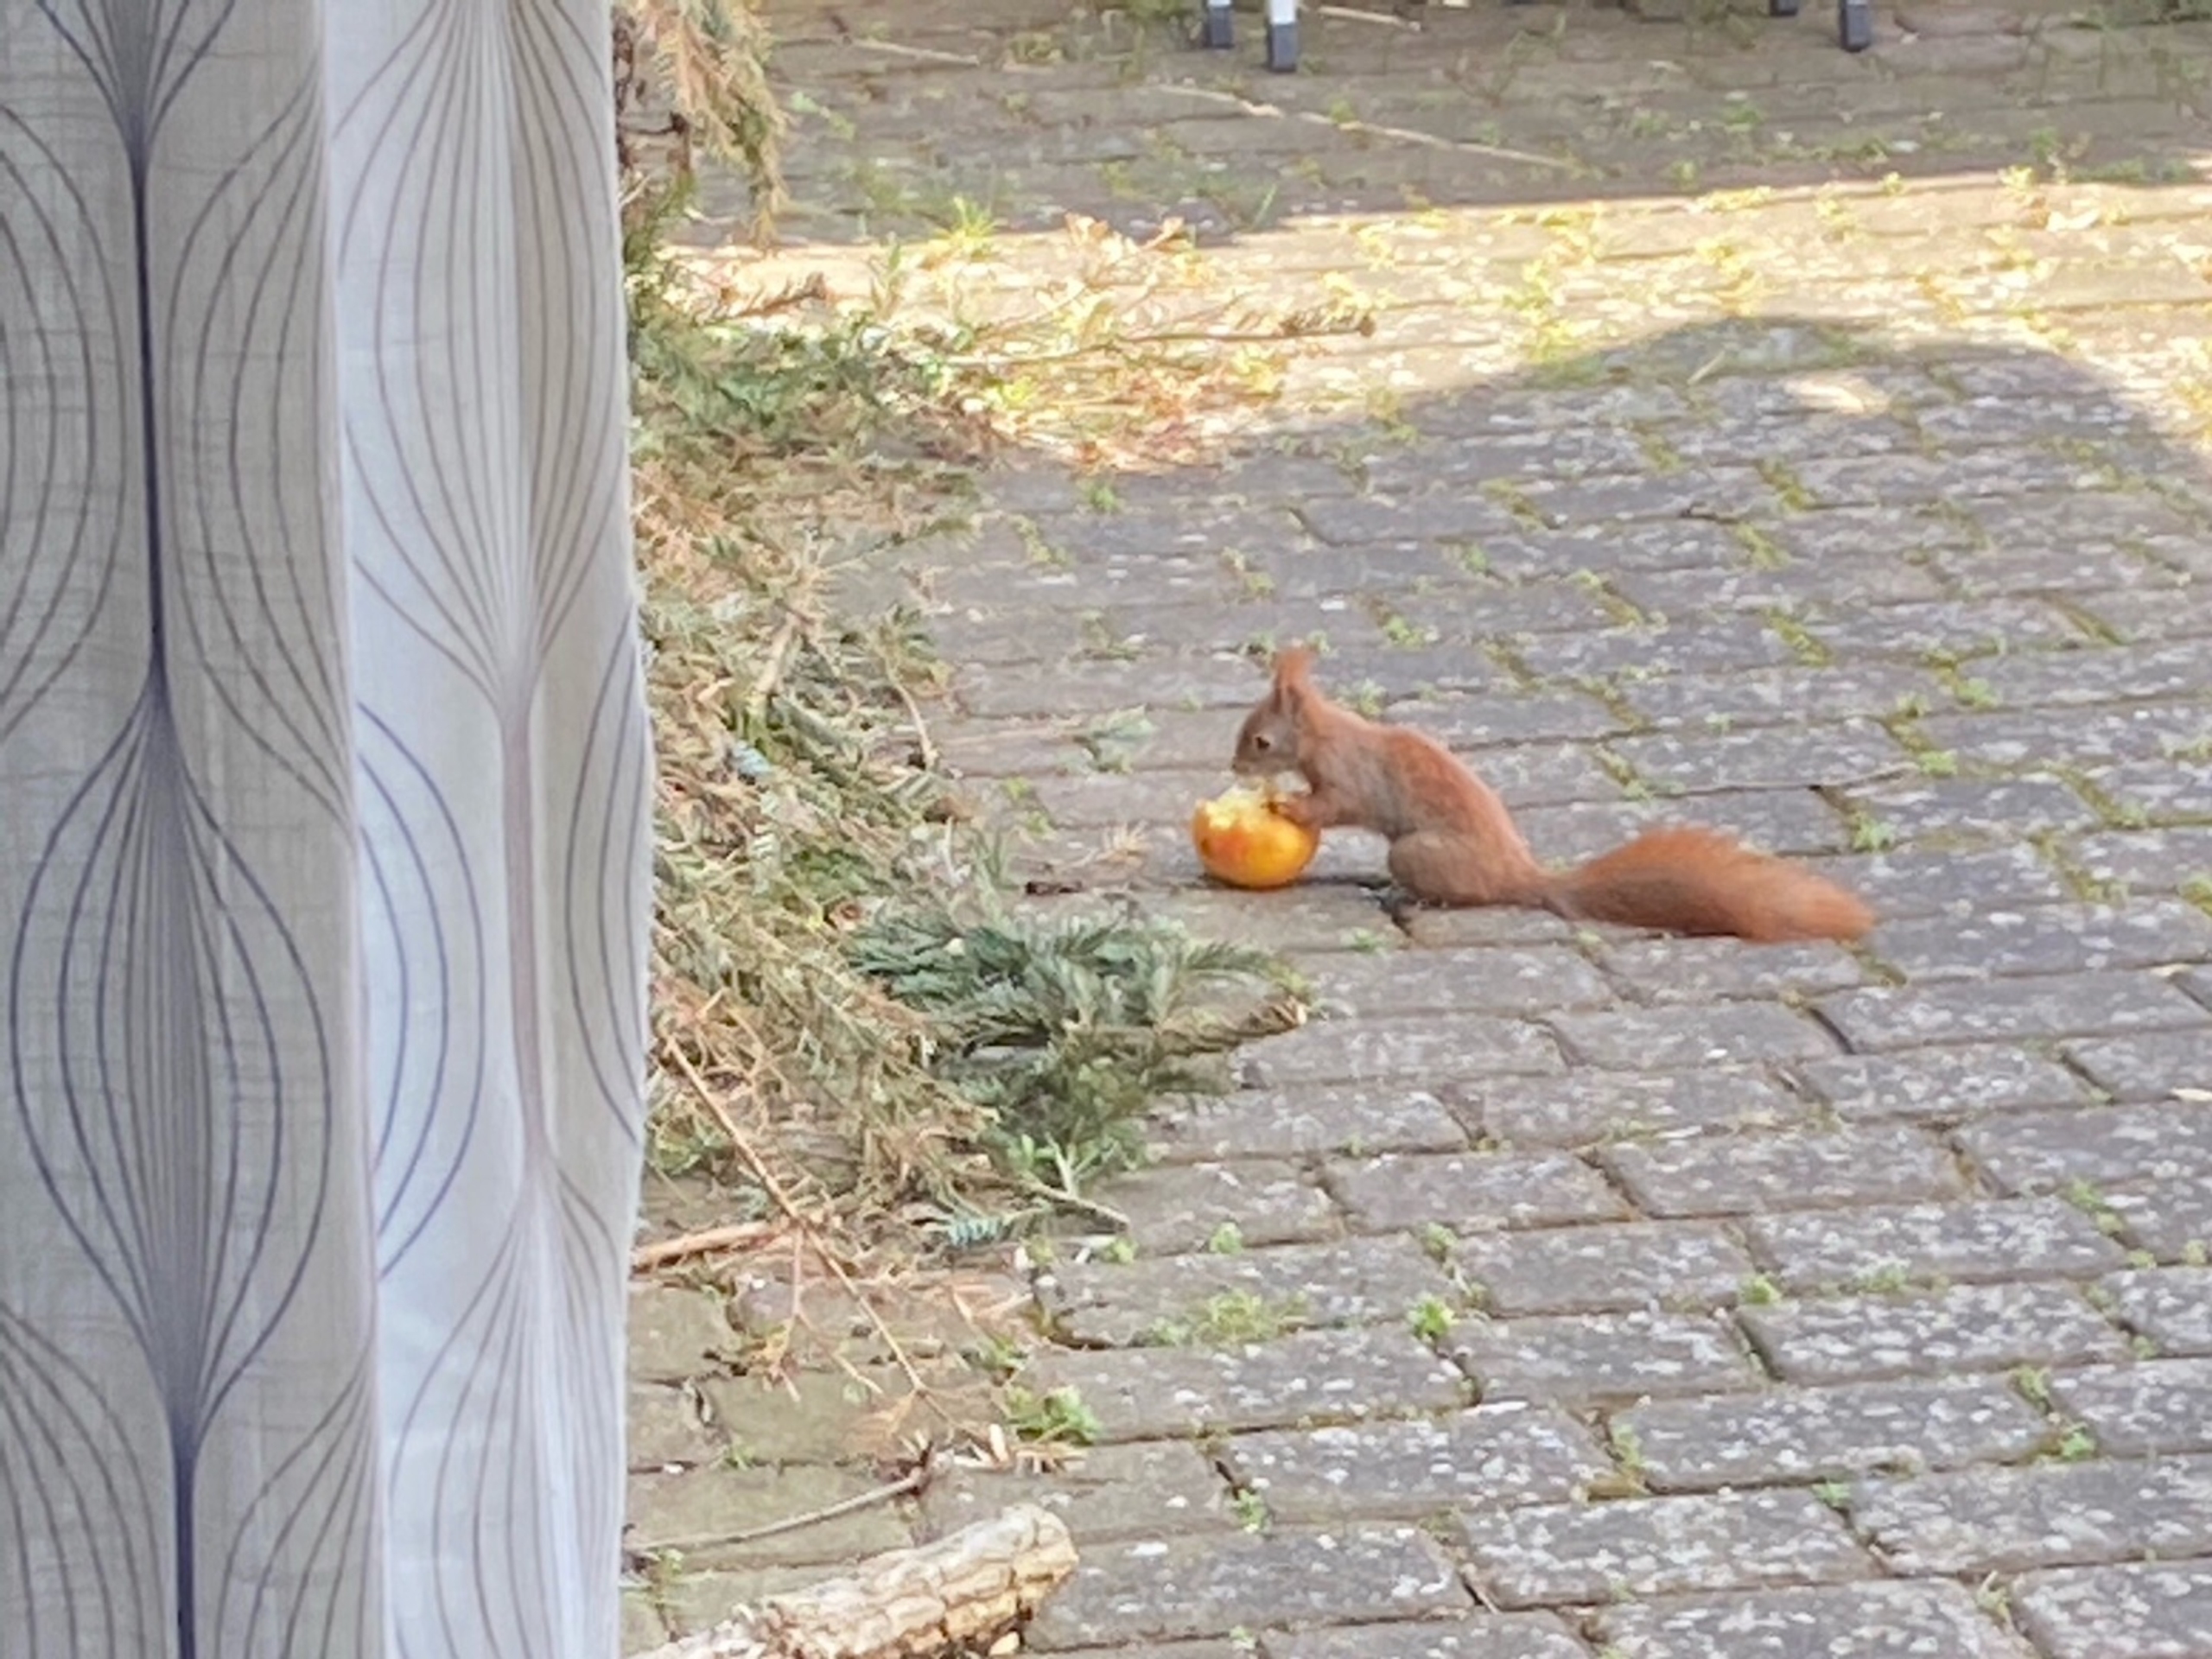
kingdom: Animalia
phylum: Chordata
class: Mammalia
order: Rodentia
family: Sciuridae
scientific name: Sciuridae
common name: Egern
